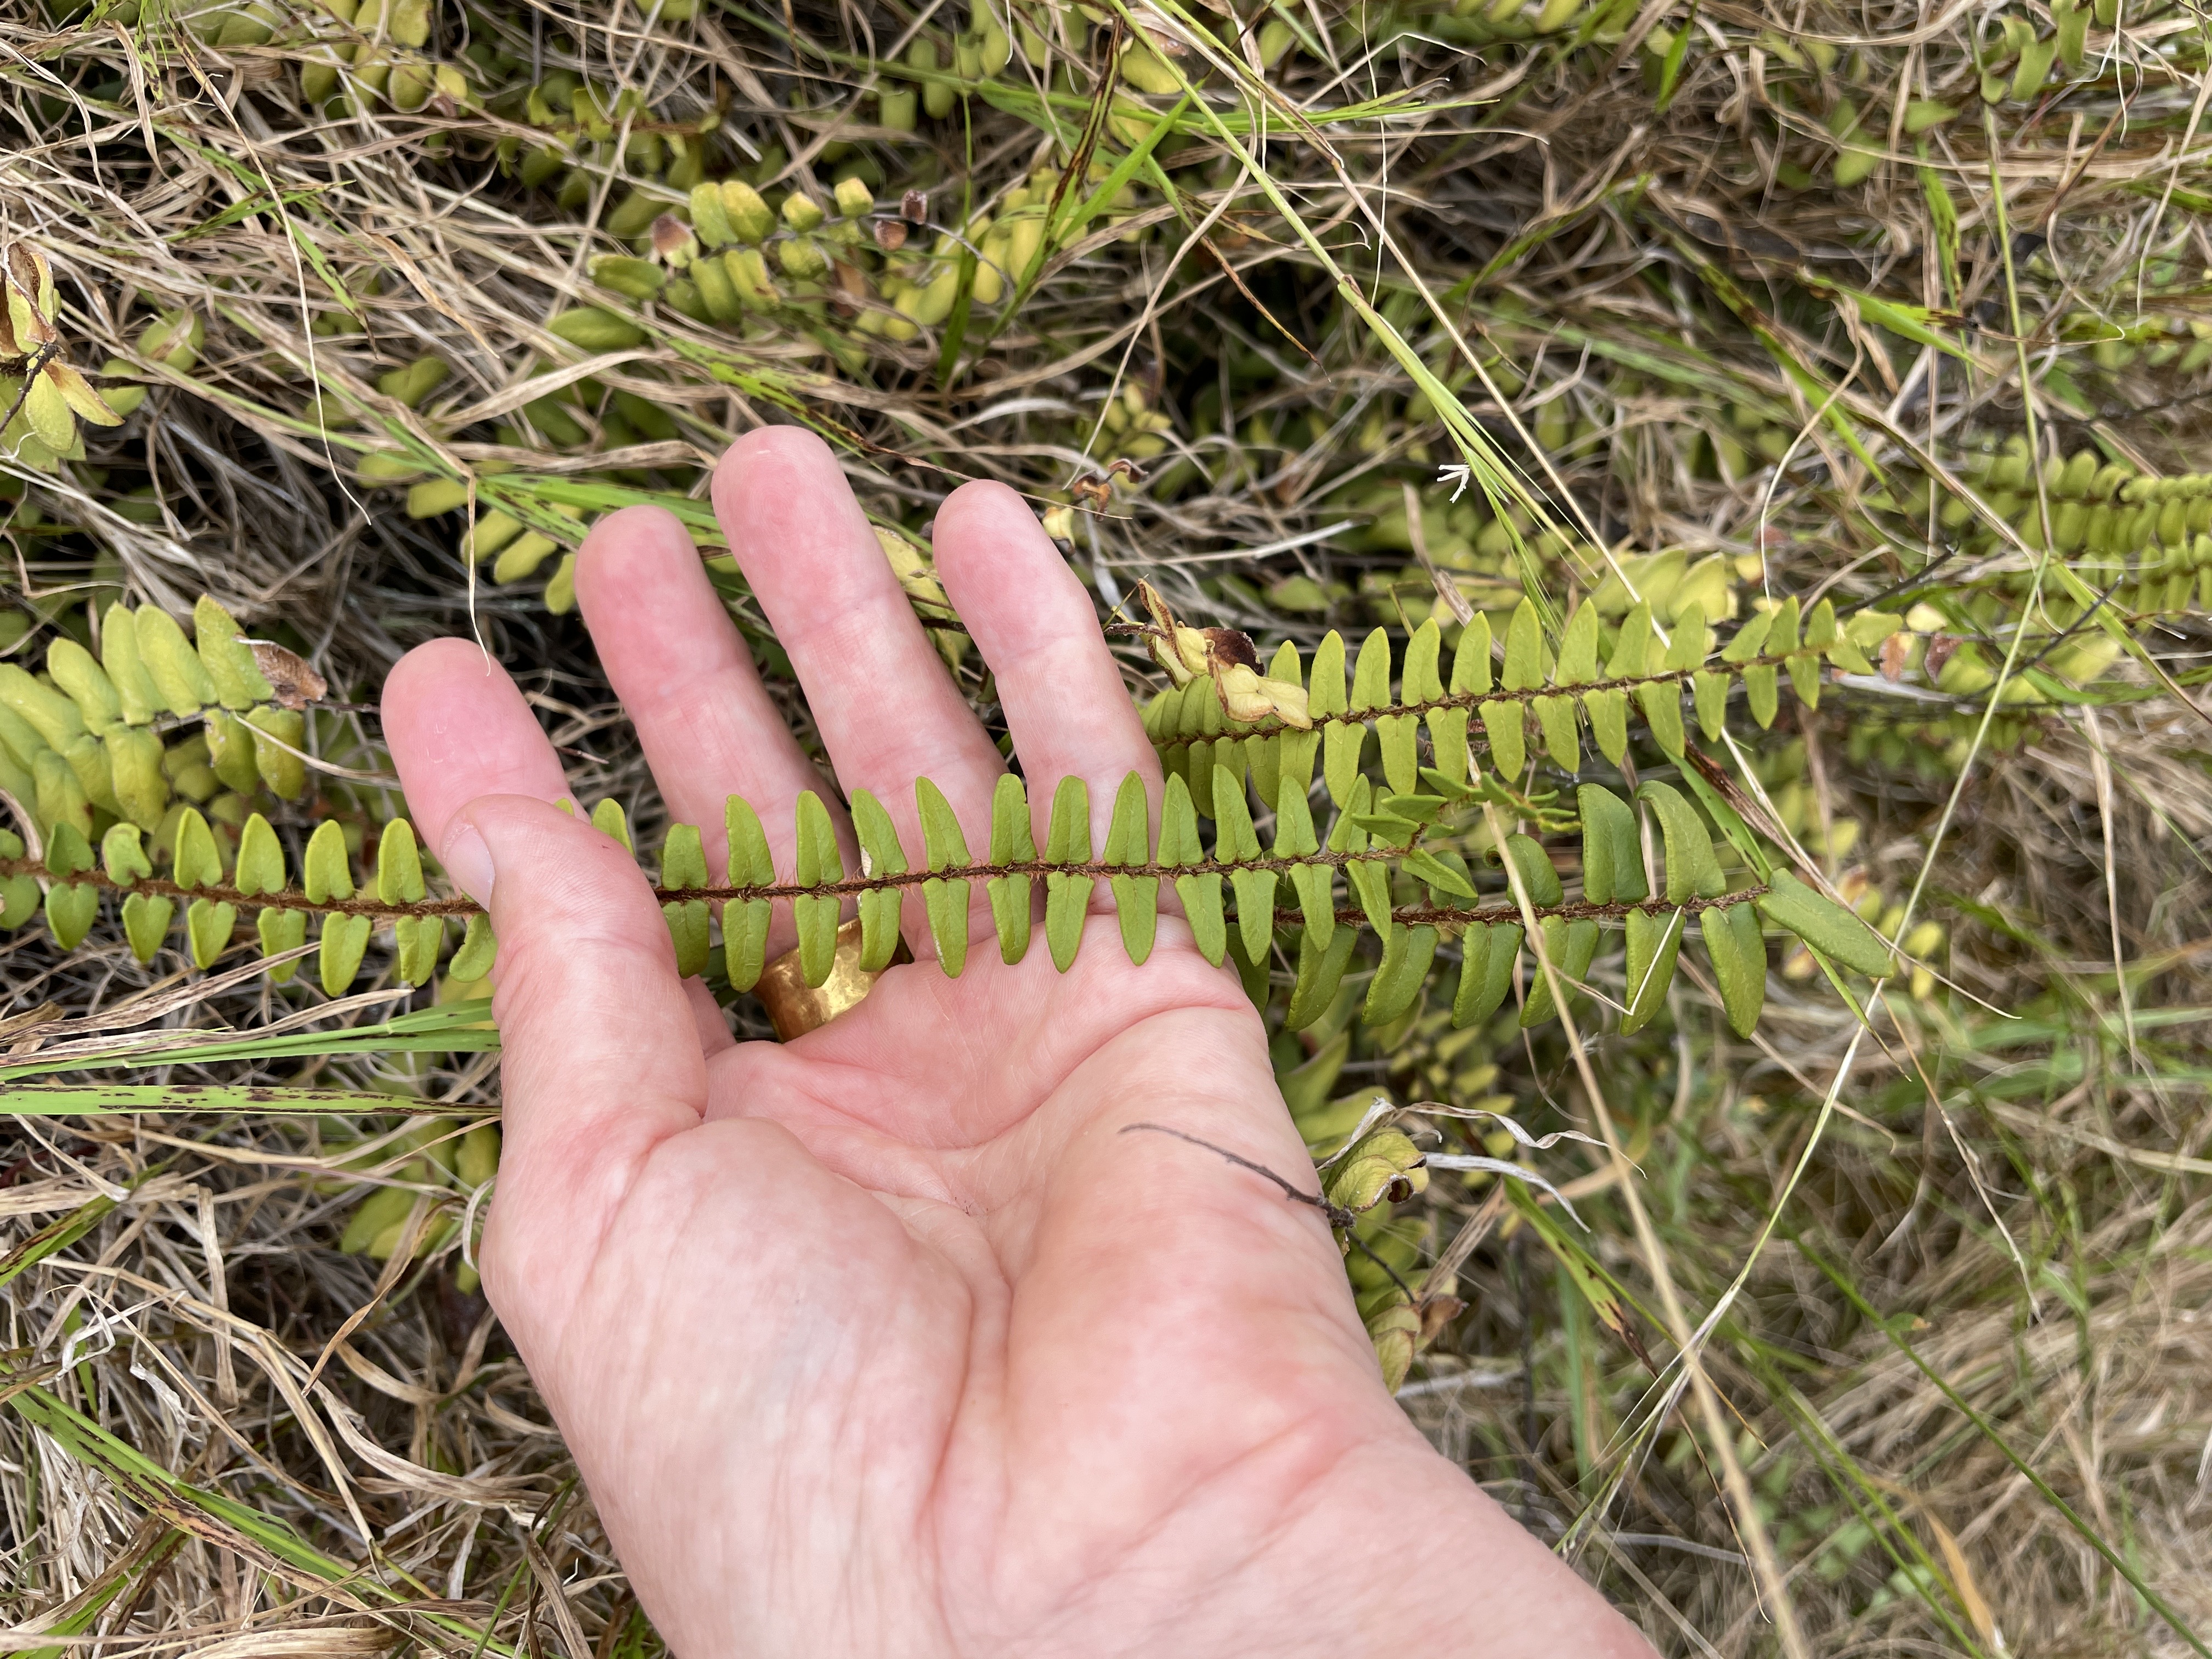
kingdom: Plantae
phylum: Tracheophyta
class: Polypodiopsida
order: Polypodiales
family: Pteridaceae
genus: Pellaea
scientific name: Pellaea rotundifolia
